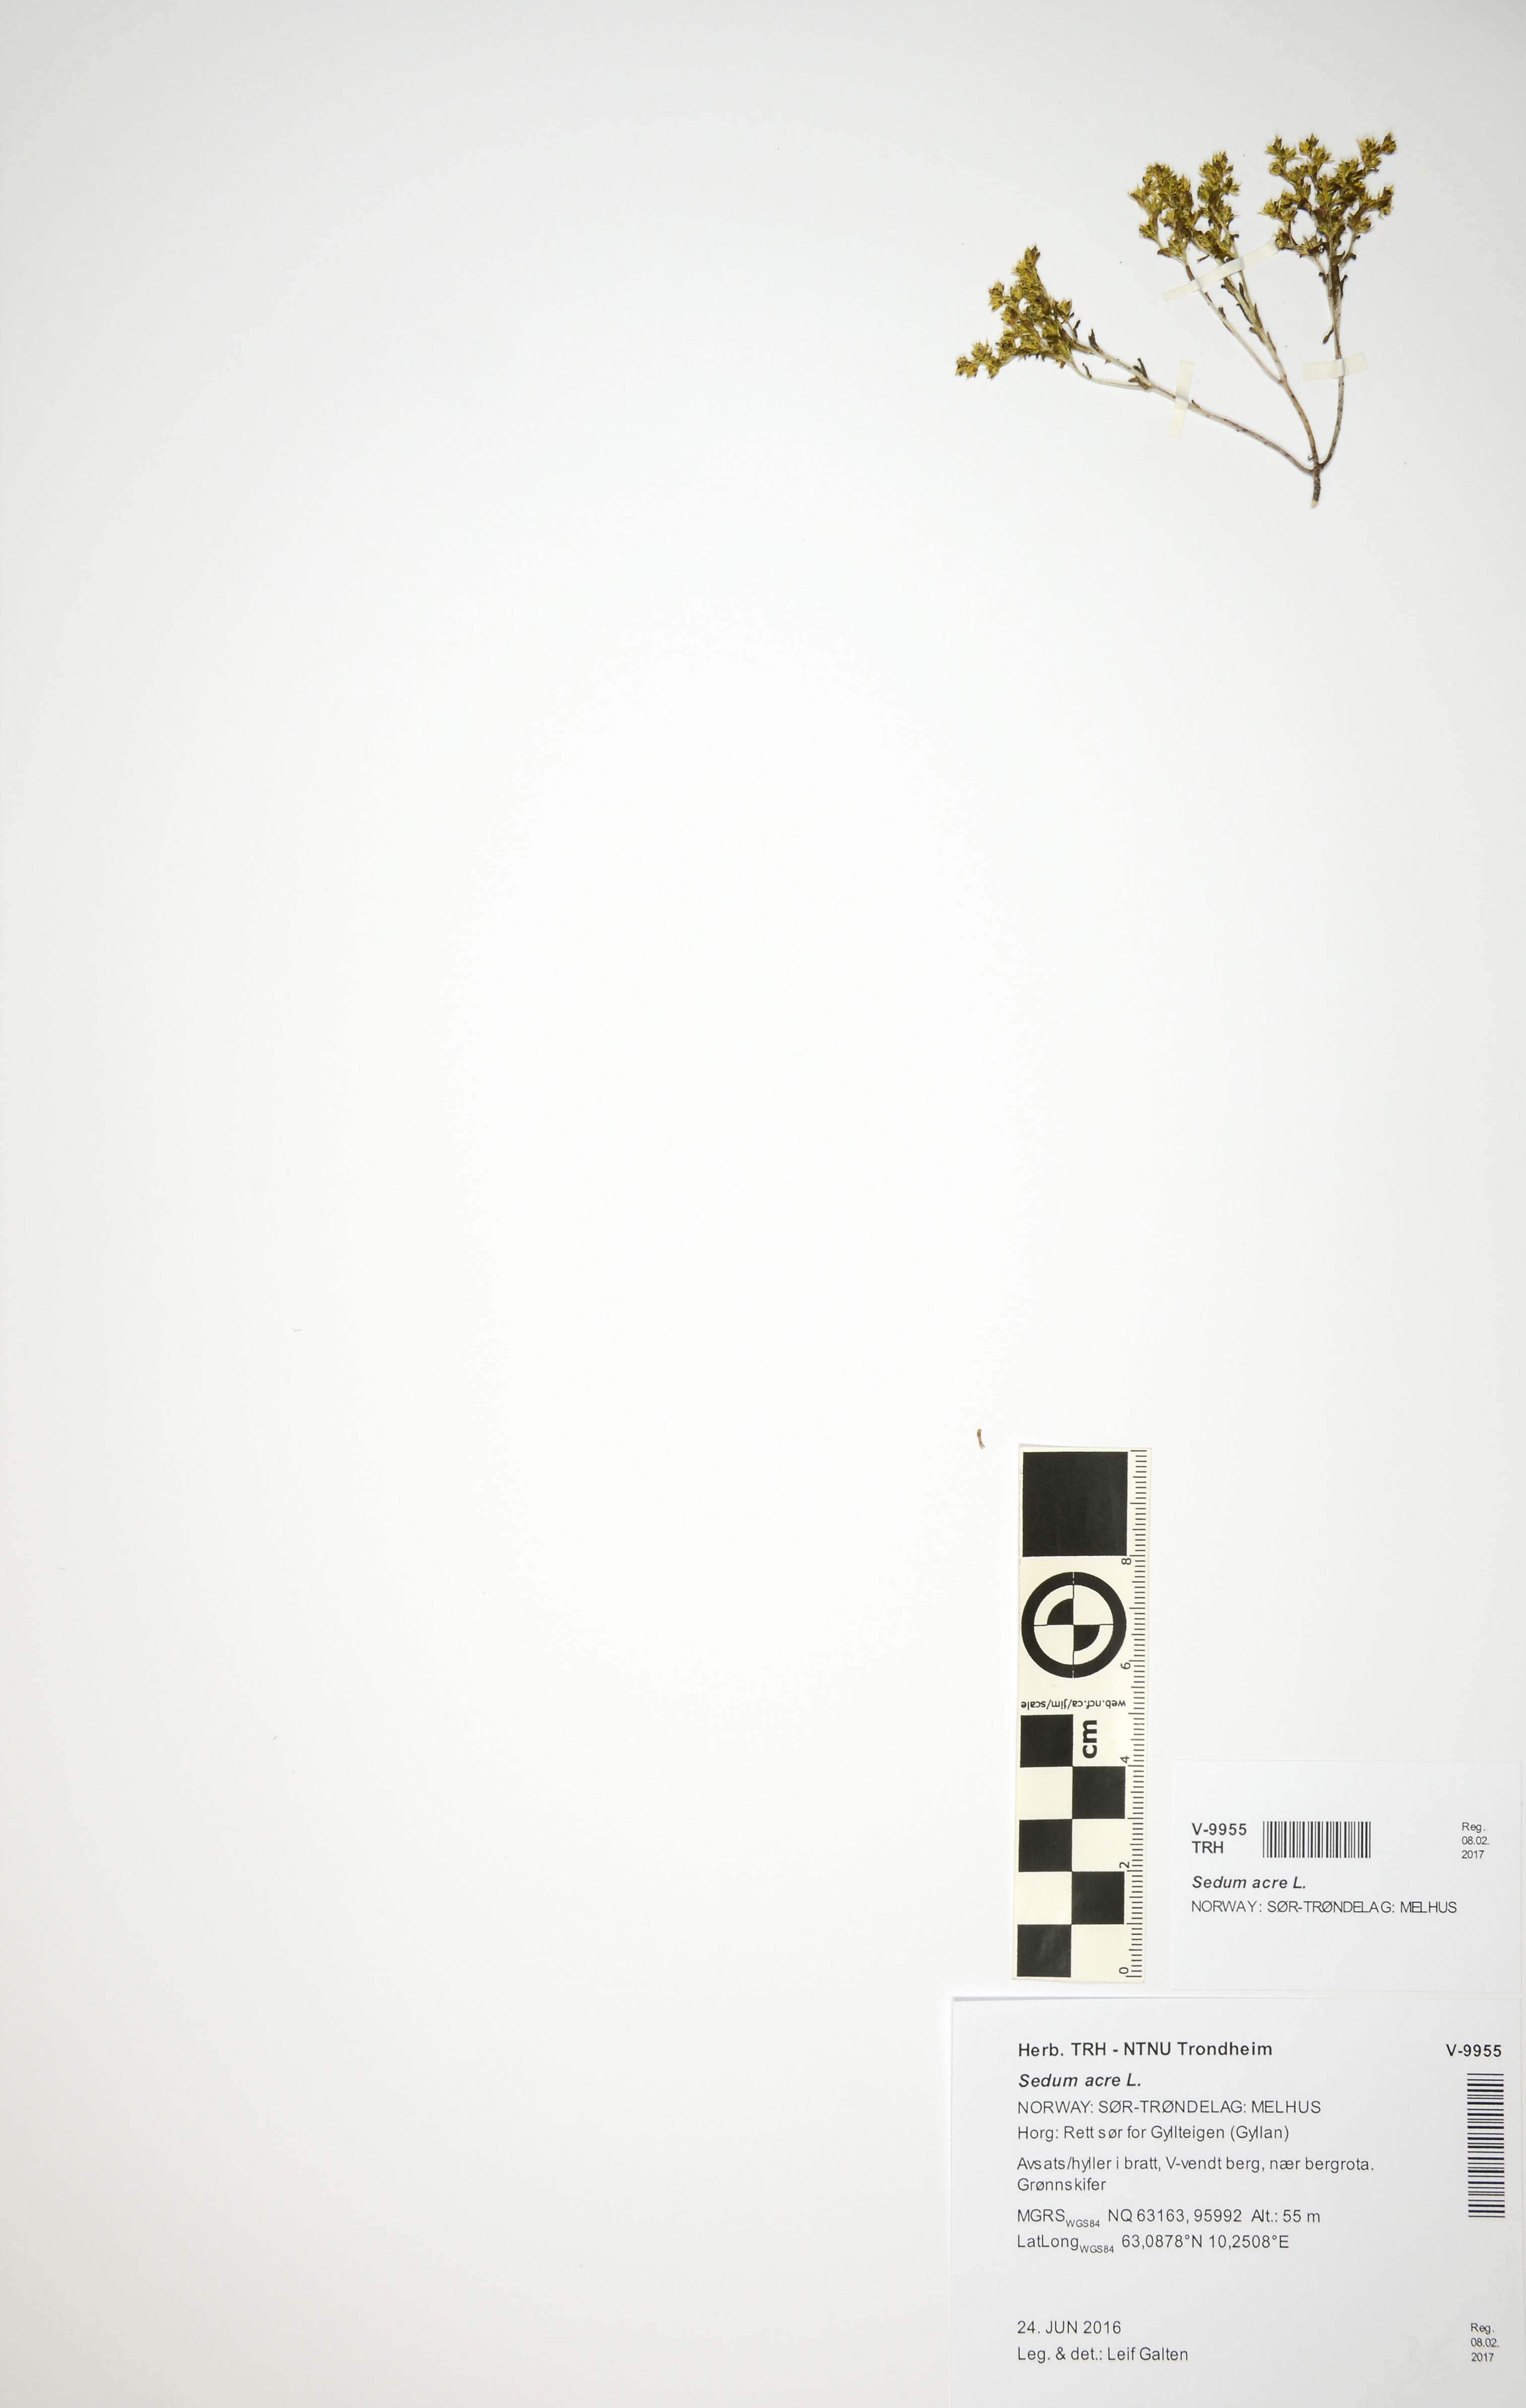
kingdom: Plantae
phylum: Tracheophyta
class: Magnoliopsida
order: Saxifragales
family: Crassulaceae
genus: Sedum
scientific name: Sedum acre
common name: Biting stonecrop
